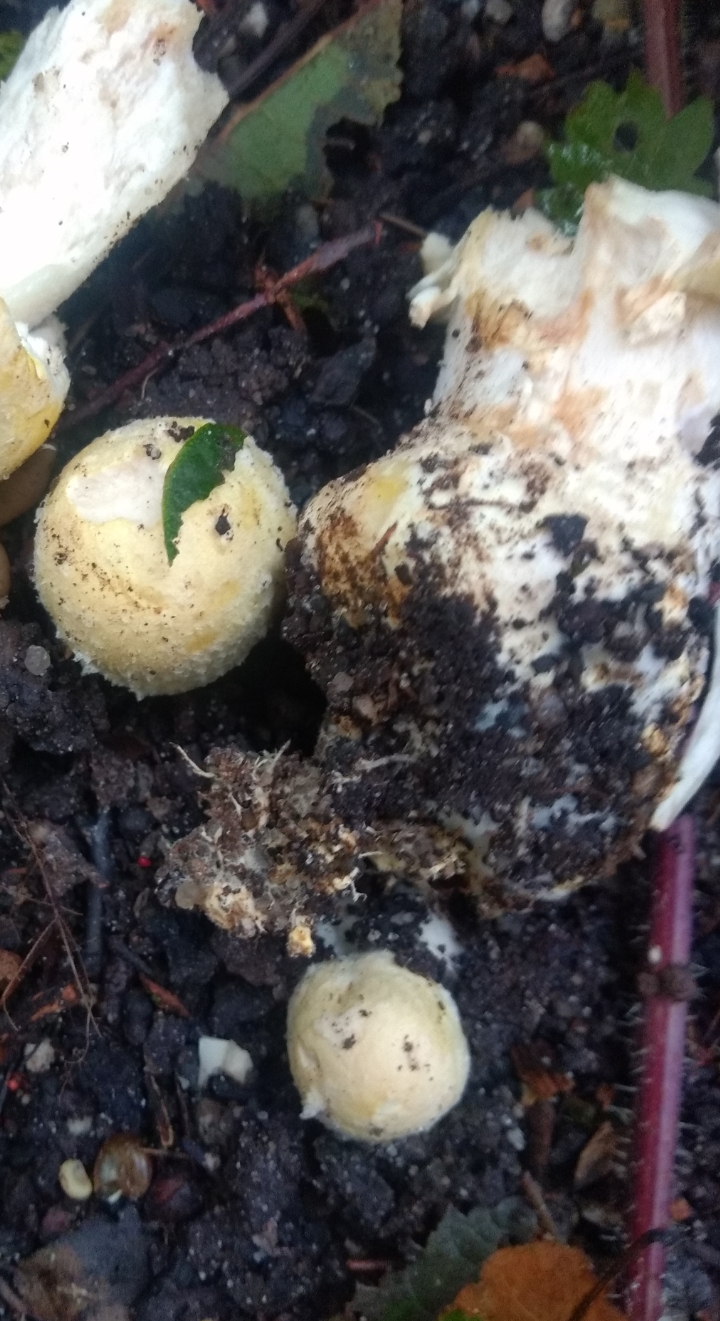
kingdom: Fungi
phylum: Basidiomycota
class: Agaricomycetes
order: Agaricales
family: Agaricaceae
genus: Agaricus
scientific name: Agaricus
